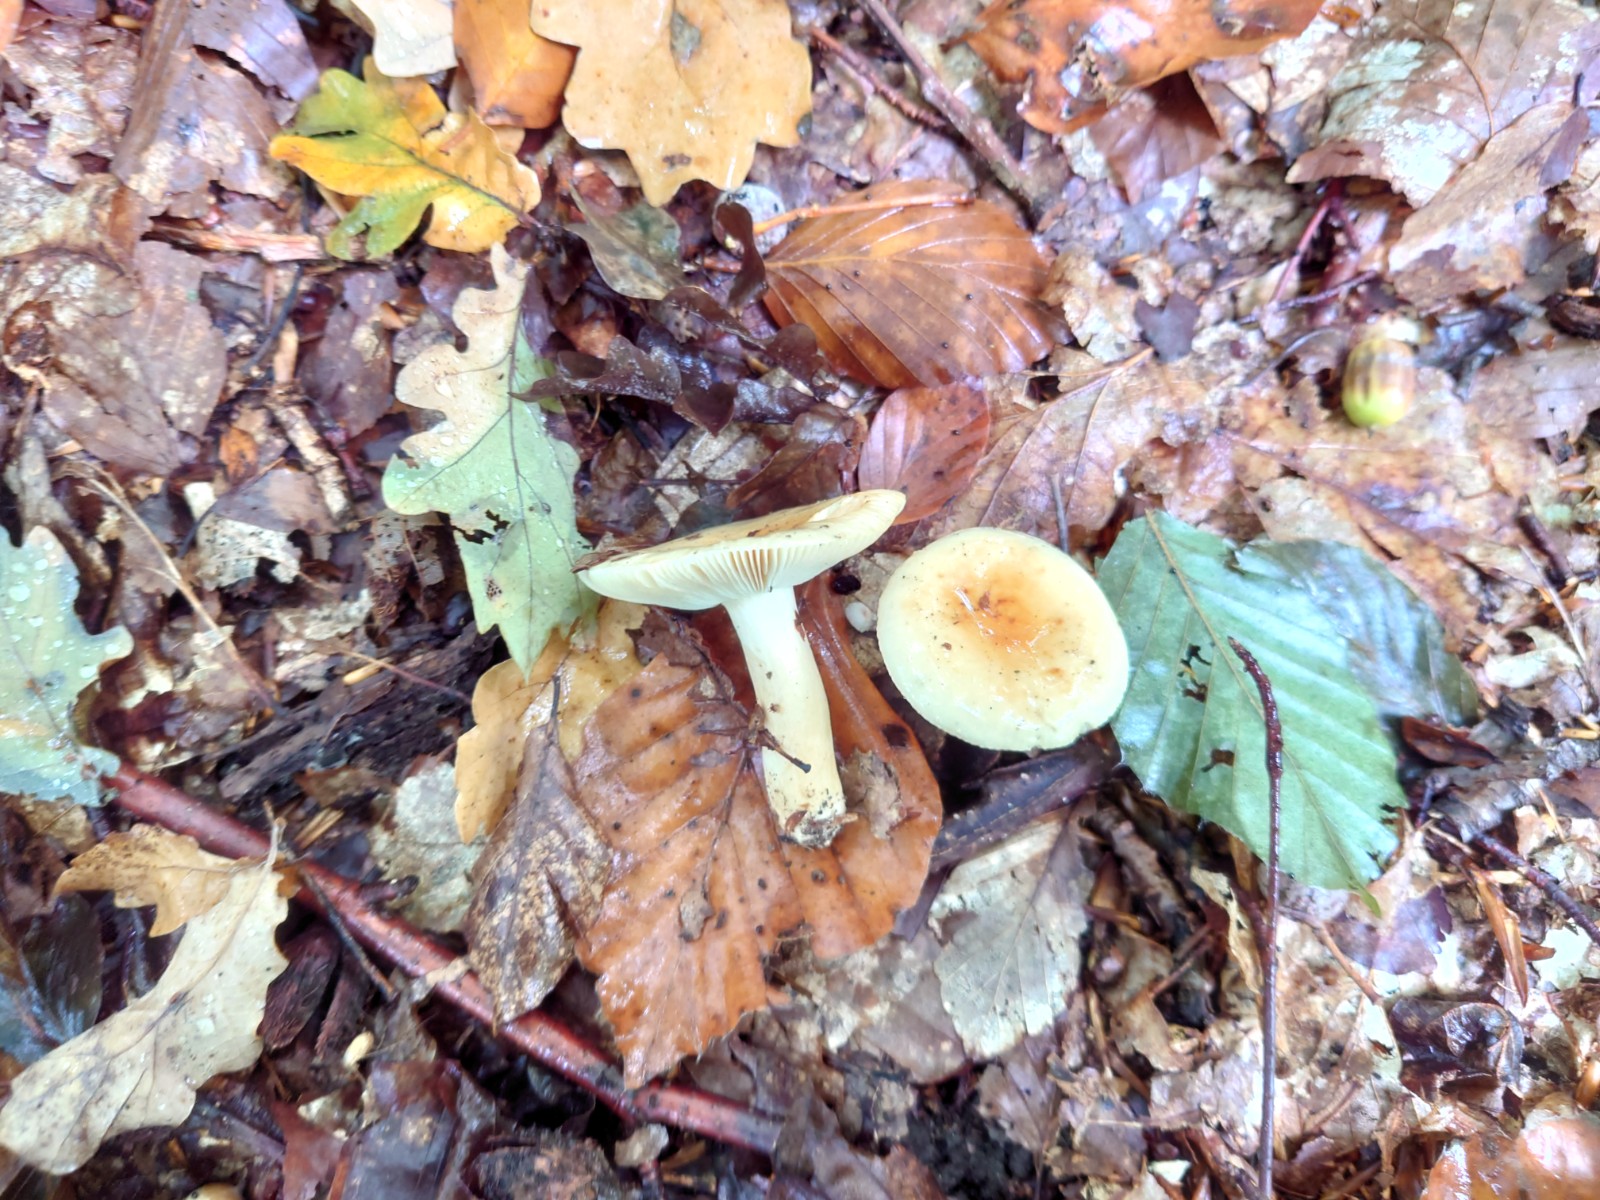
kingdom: Fungi
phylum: Basidiomycota
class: Agaricomycetes
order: Russulales
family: Russulaceae
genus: Russula
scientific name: Russula fellea
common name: galde-skørhat
